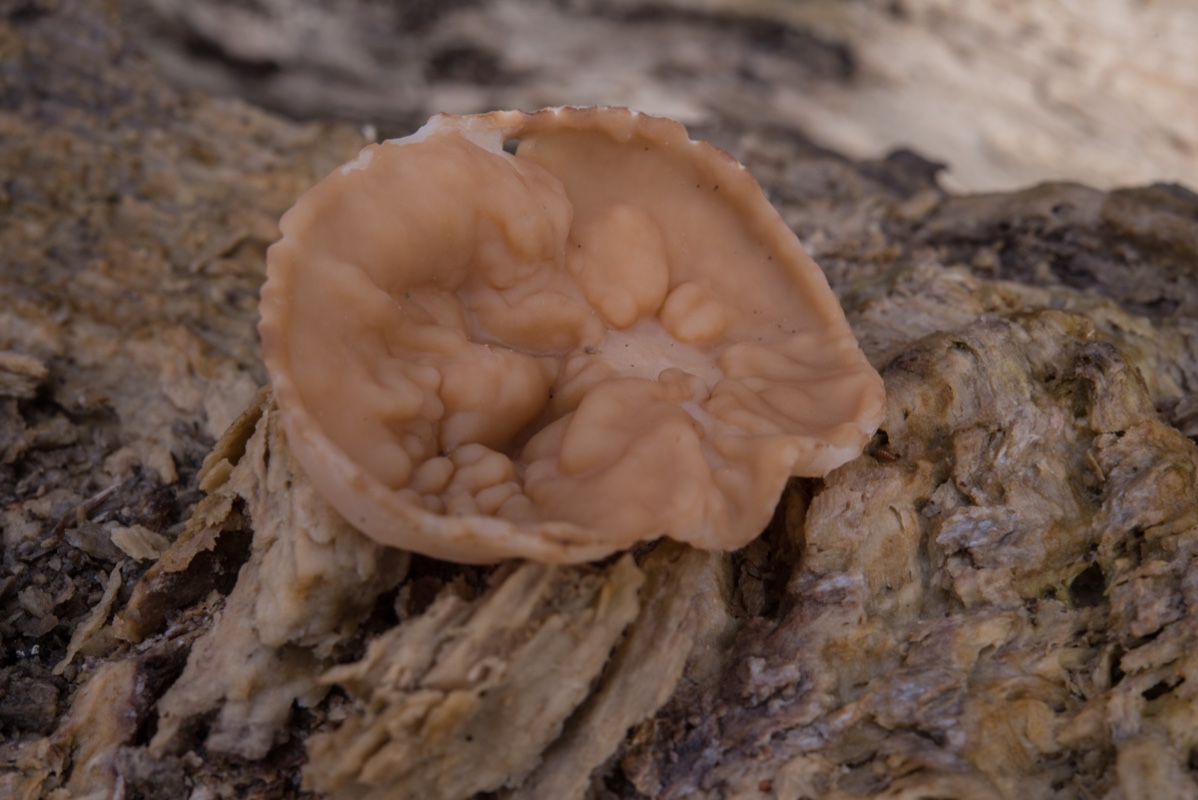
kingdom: Fungi
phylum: Ascomycota
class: Pezizomycetes
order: Pezizales
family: Discinaceae
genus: Gyromitra
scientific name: Gyromitra parma
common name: flad stenmorkel
